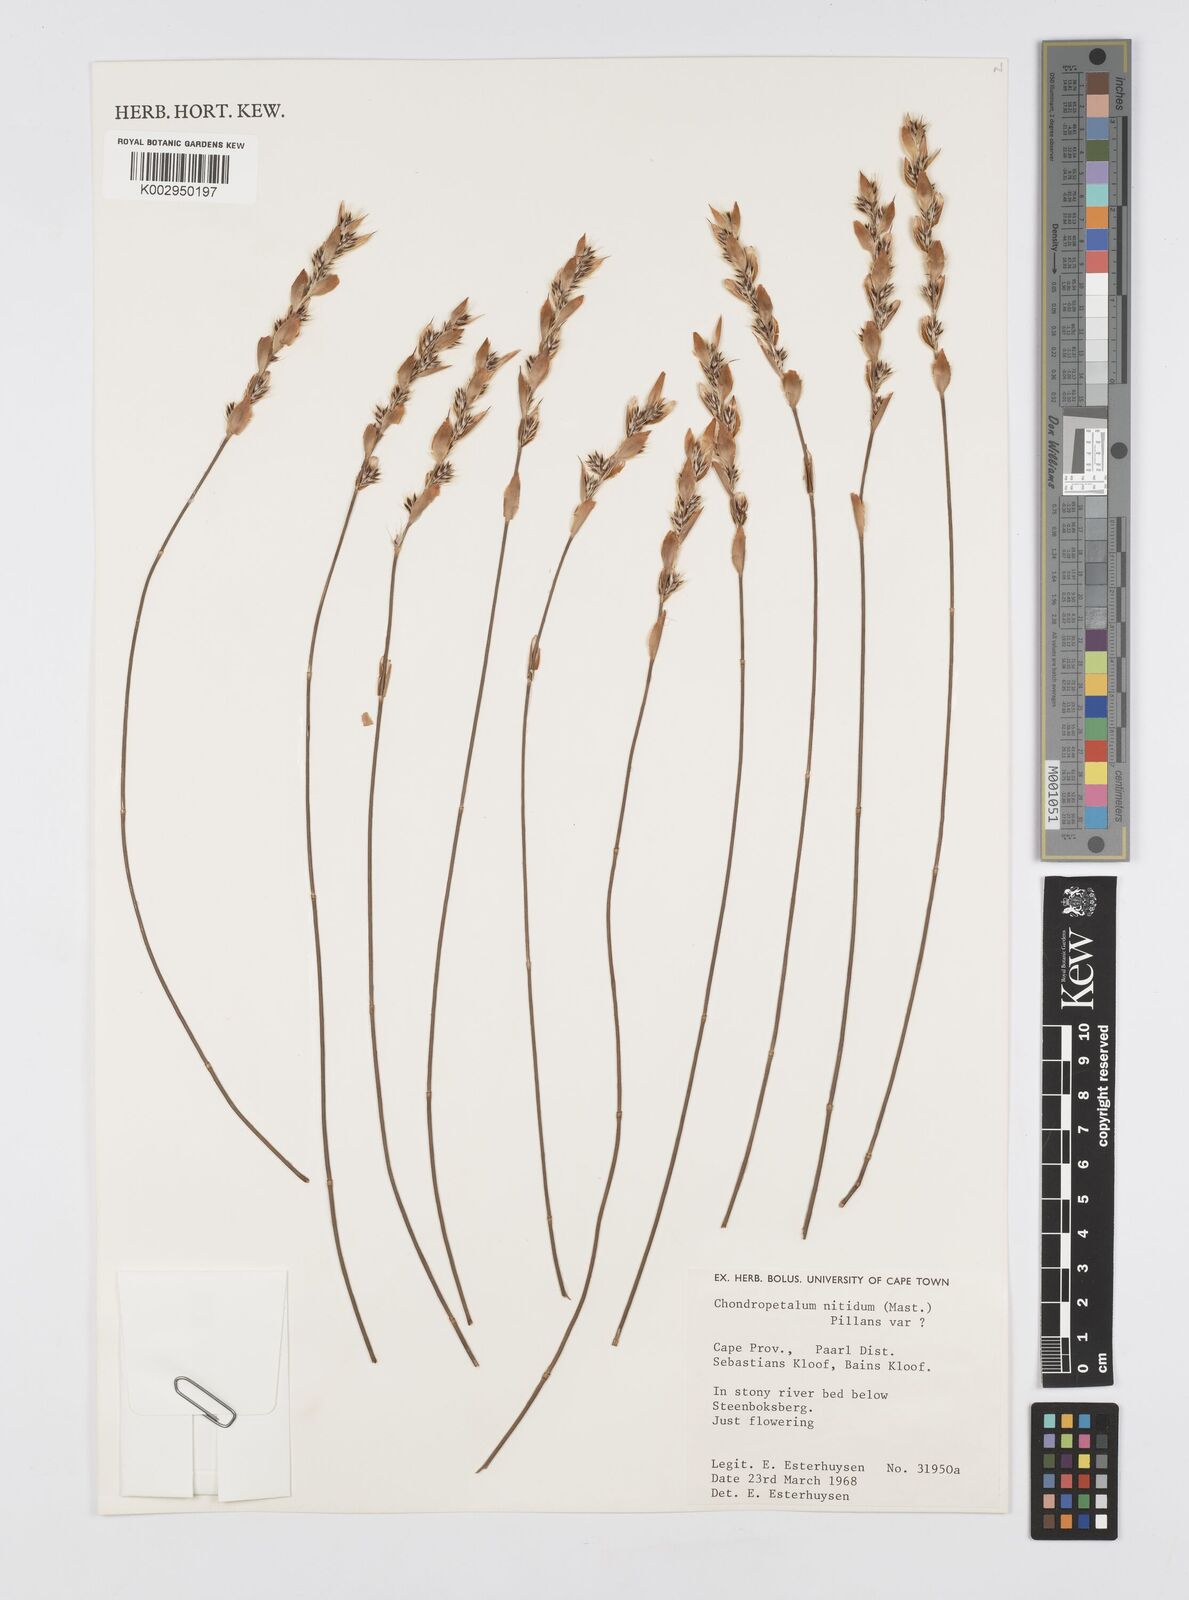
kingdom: Plantae
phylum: Tracheophyta
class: Liliopsida
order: Poales
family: Restionaceae
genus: Askidiosperma
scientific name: Askidiosperma nitidum
